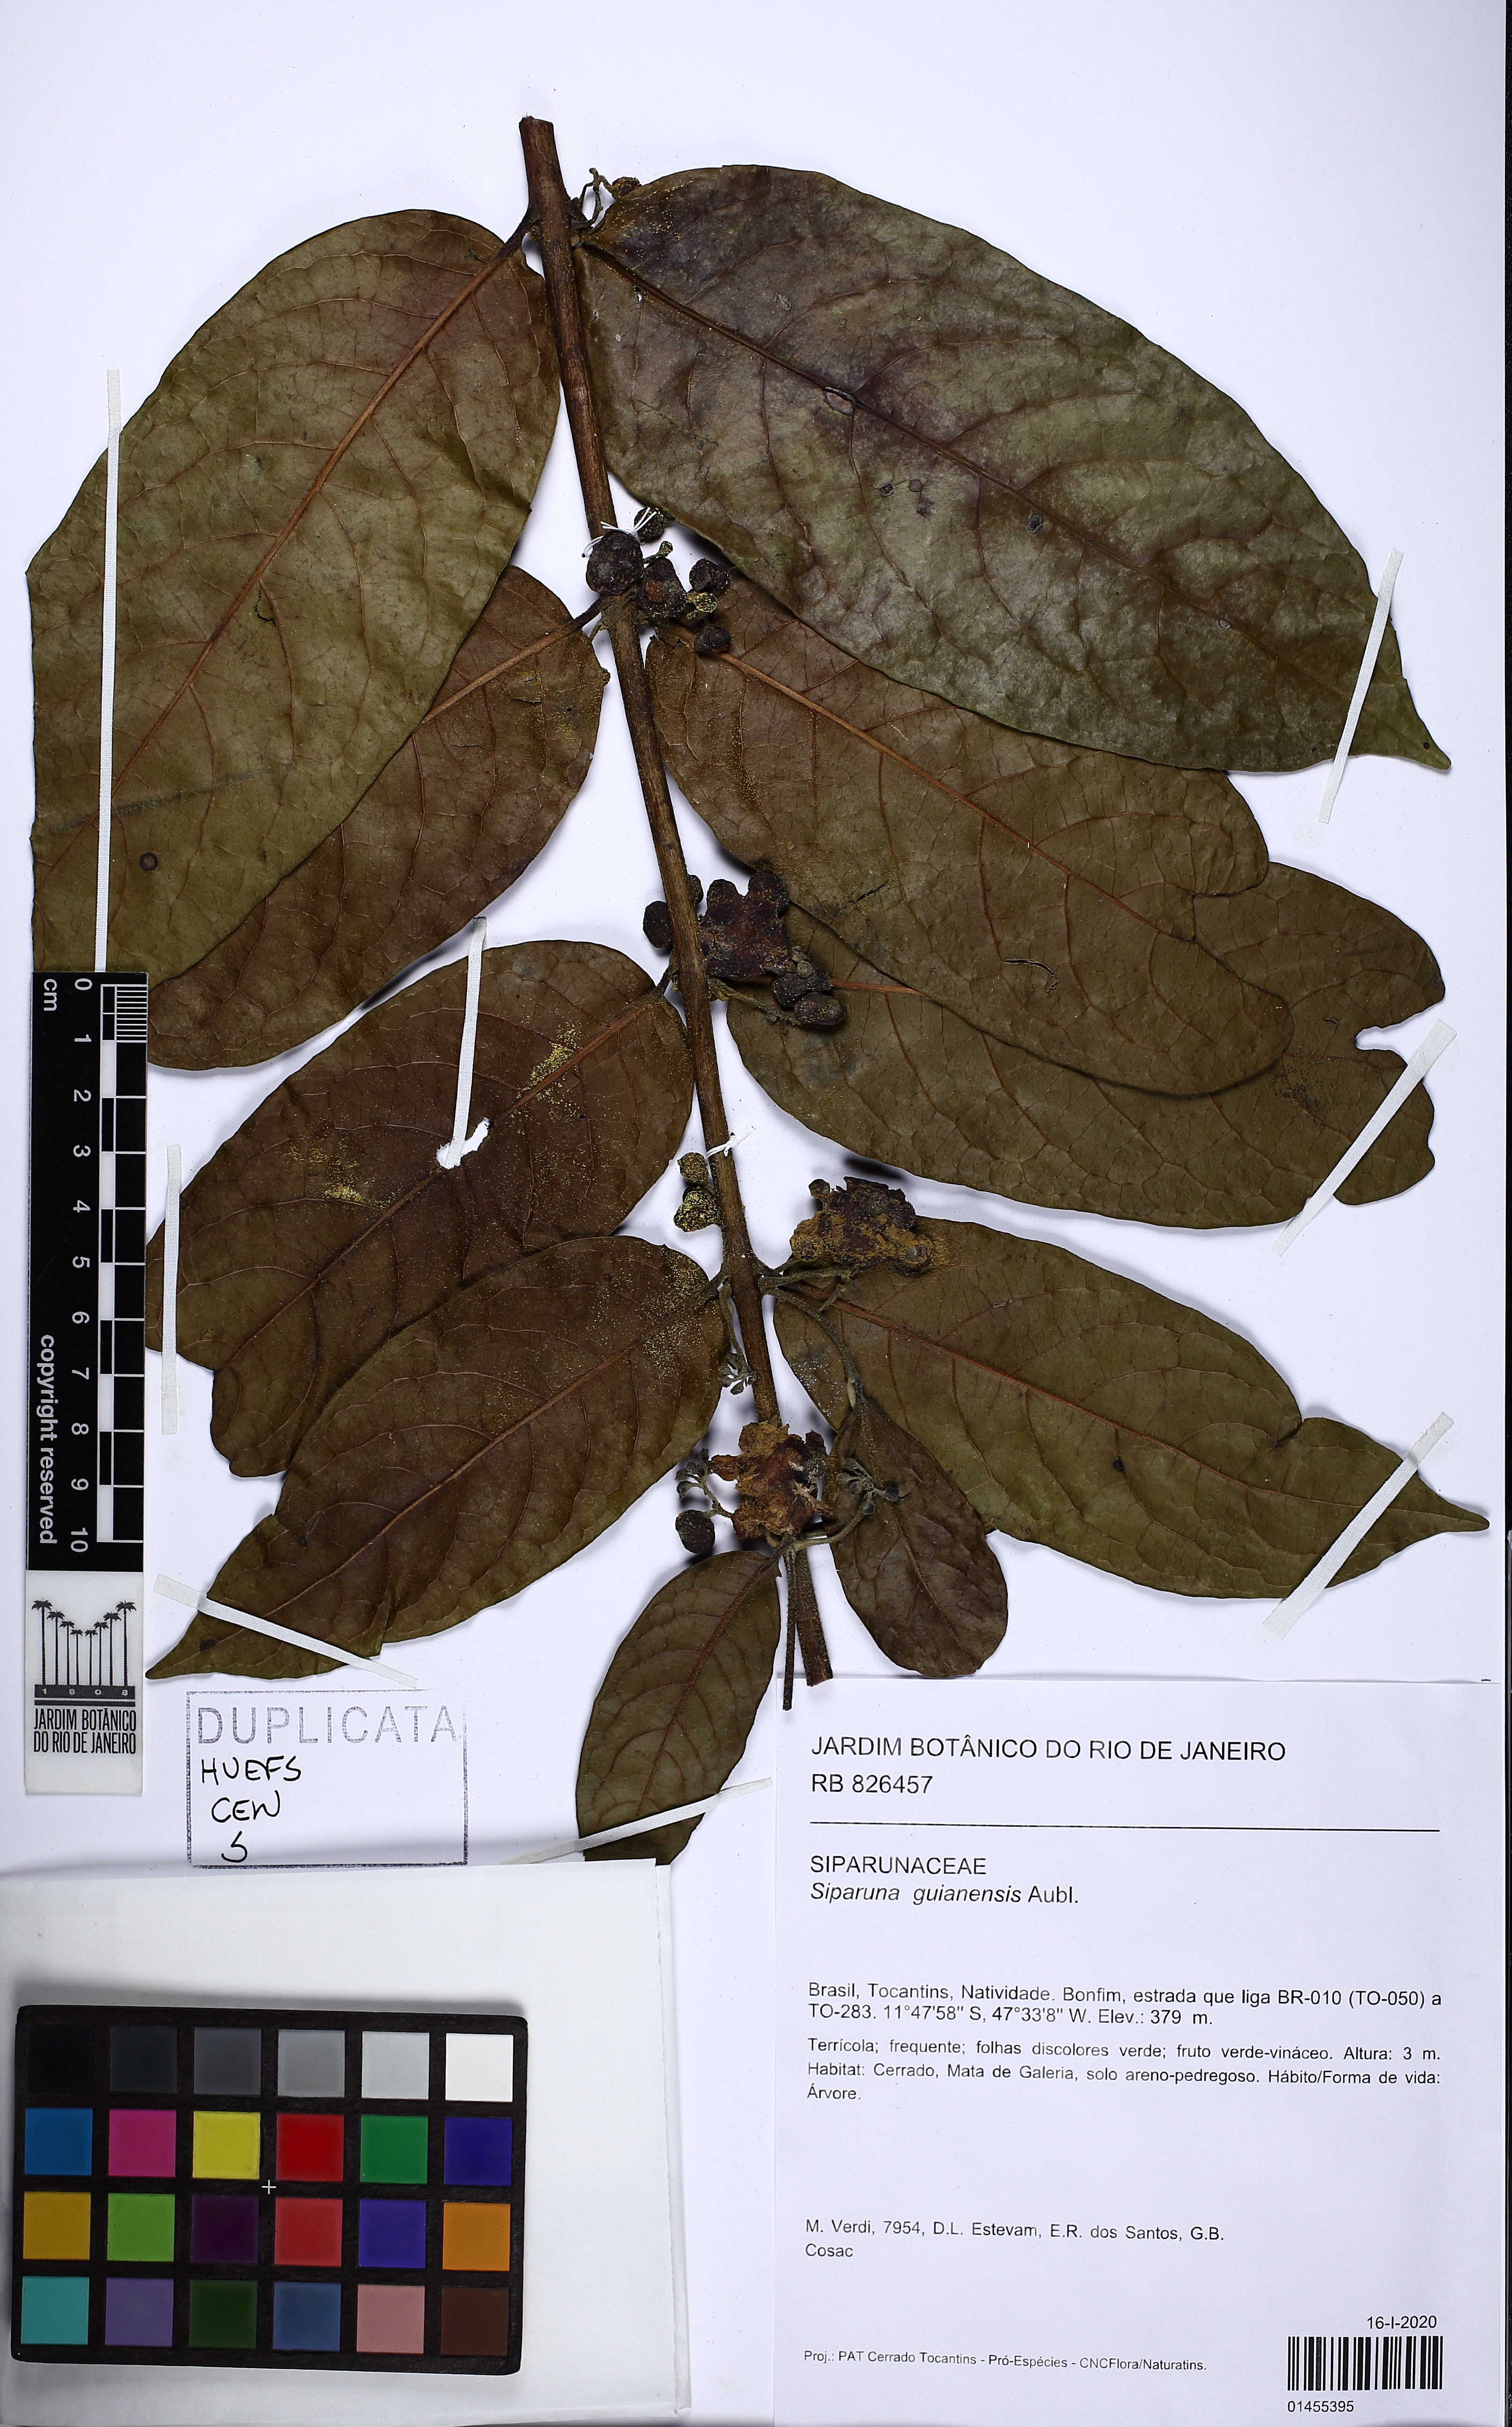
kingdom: Plantae
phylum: Tracheophyta
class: Magnoliopsida
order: Laurales
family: Siparunaceae
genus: Siparuna
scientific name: Siparuna guianensis
